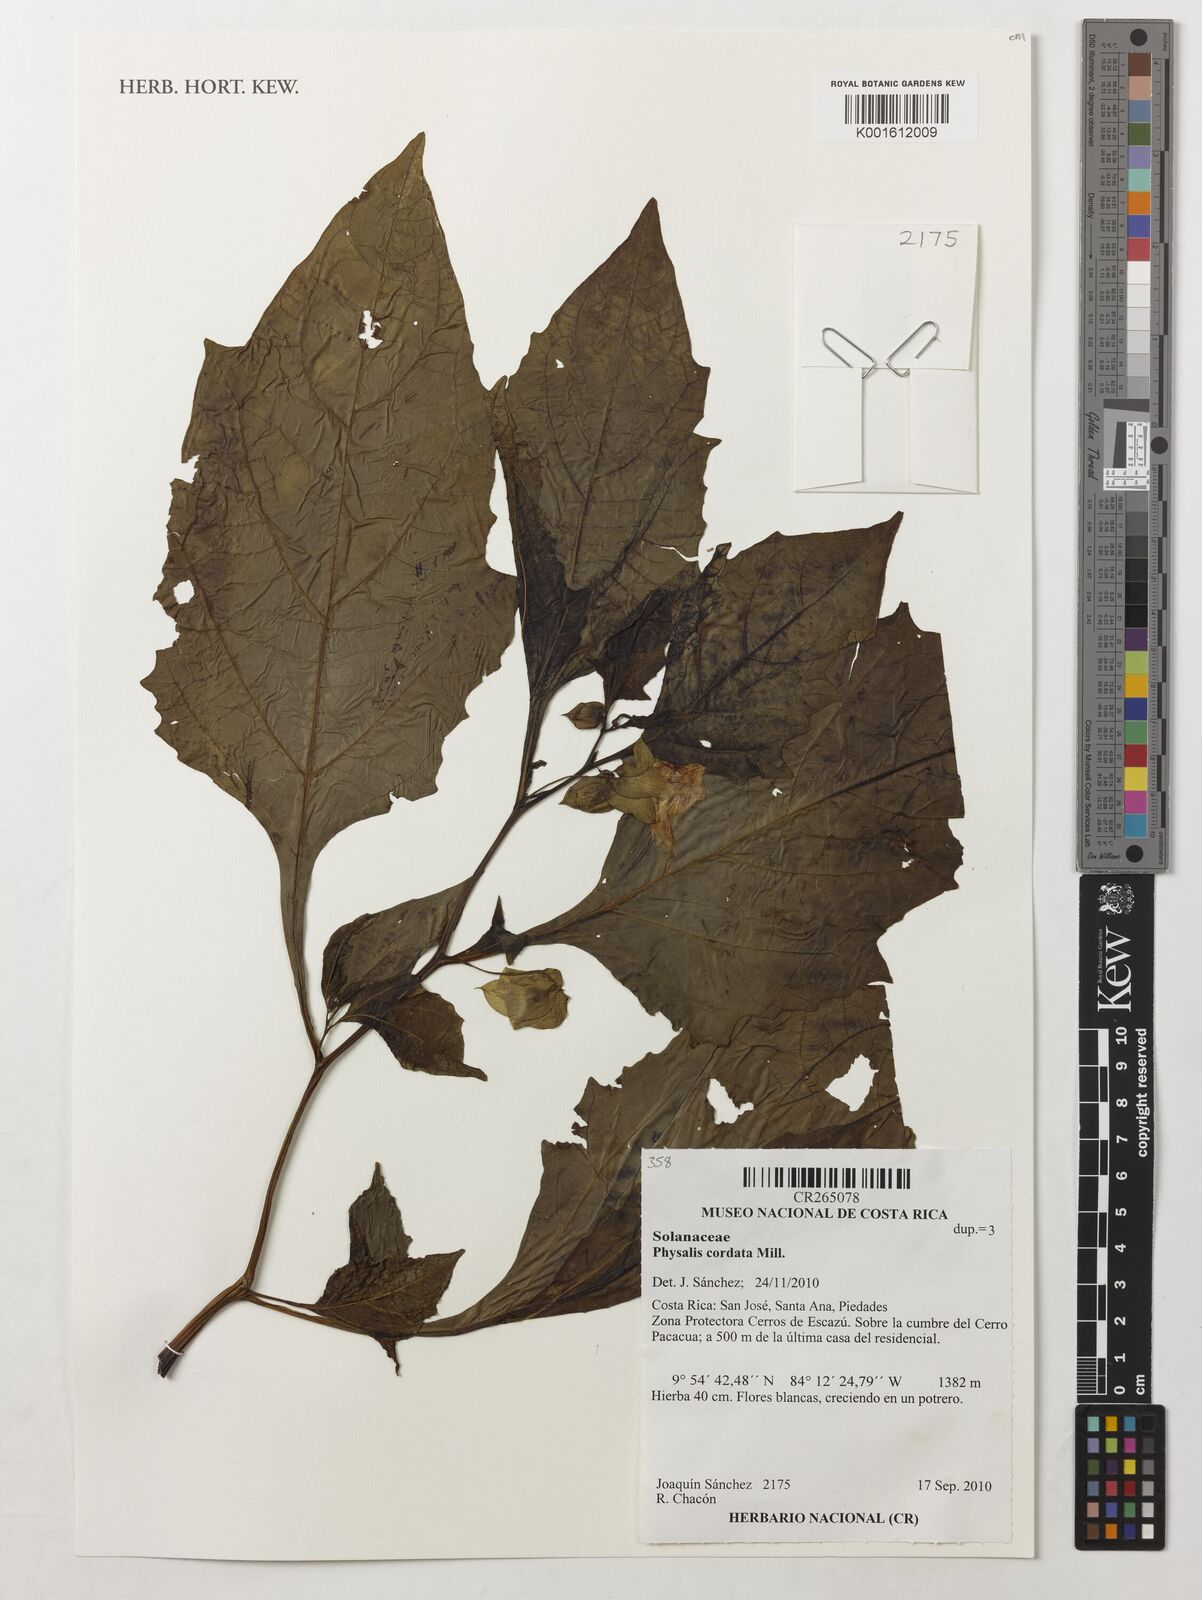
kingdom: Plantae
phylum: Tracheophyta
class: Magnoliopsida
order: Solanales
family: Solanaceae
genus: Physalis
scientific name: Physalis cordata
